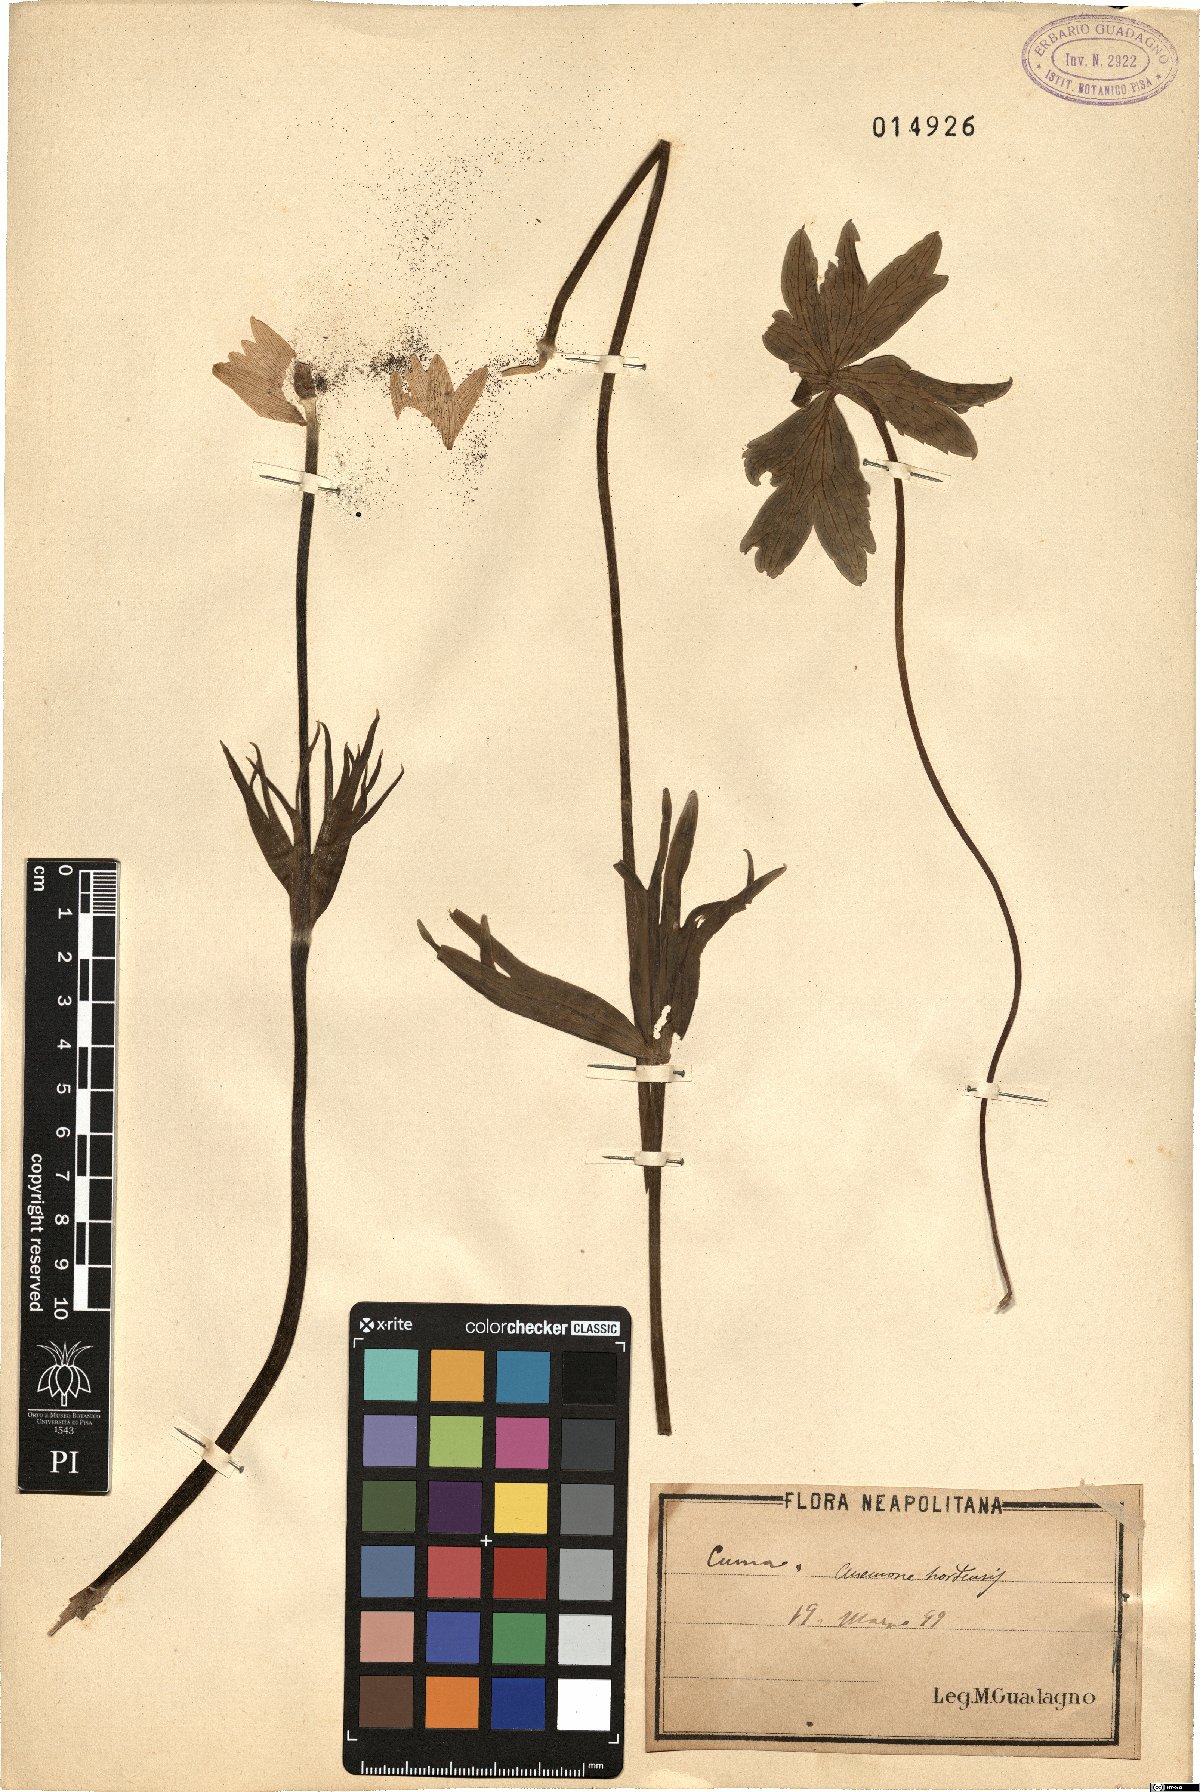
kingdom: Plantae
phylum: Tracheophyta
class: Magnoliopsida
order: Ranunculales
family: Ranunculaceae
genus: Anemone
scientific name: Anemone hortensis
